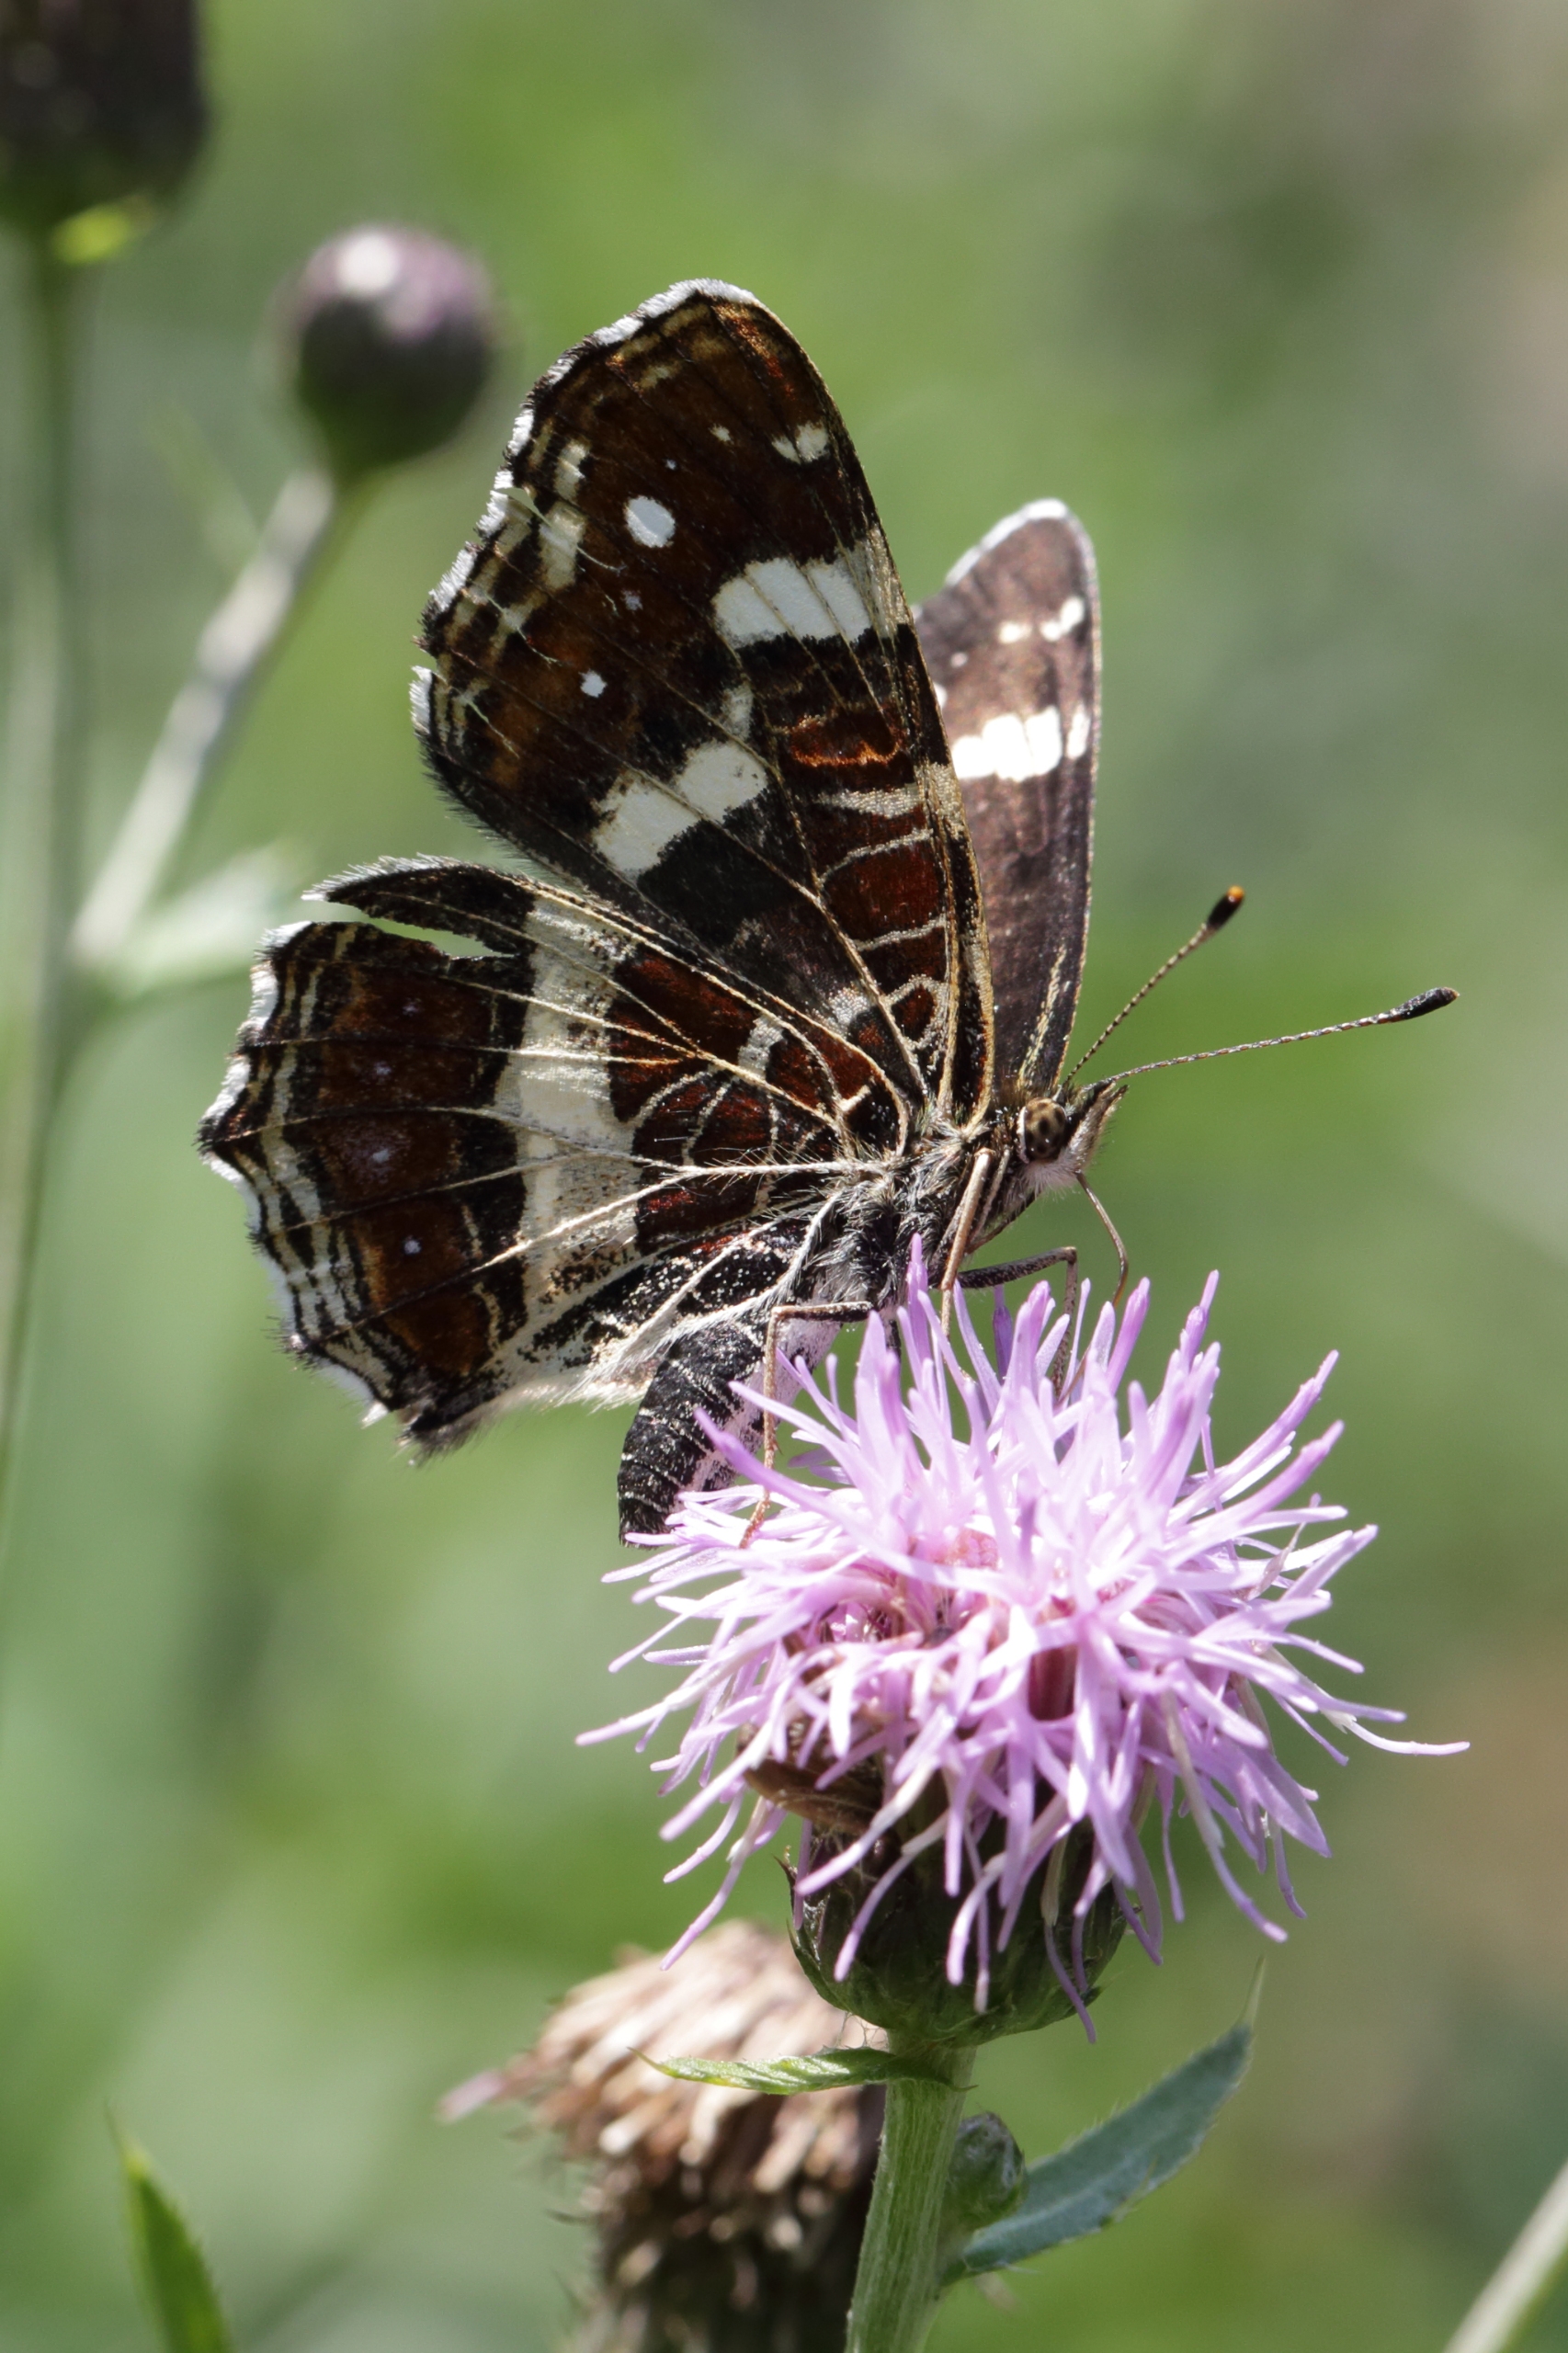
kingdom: Animalia
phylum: Arthropoda
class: Insecta
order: Lepidoptera
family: Nymphalidae
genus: Araschnia
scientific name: Araschnia levana
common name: Nældesommerfugl
